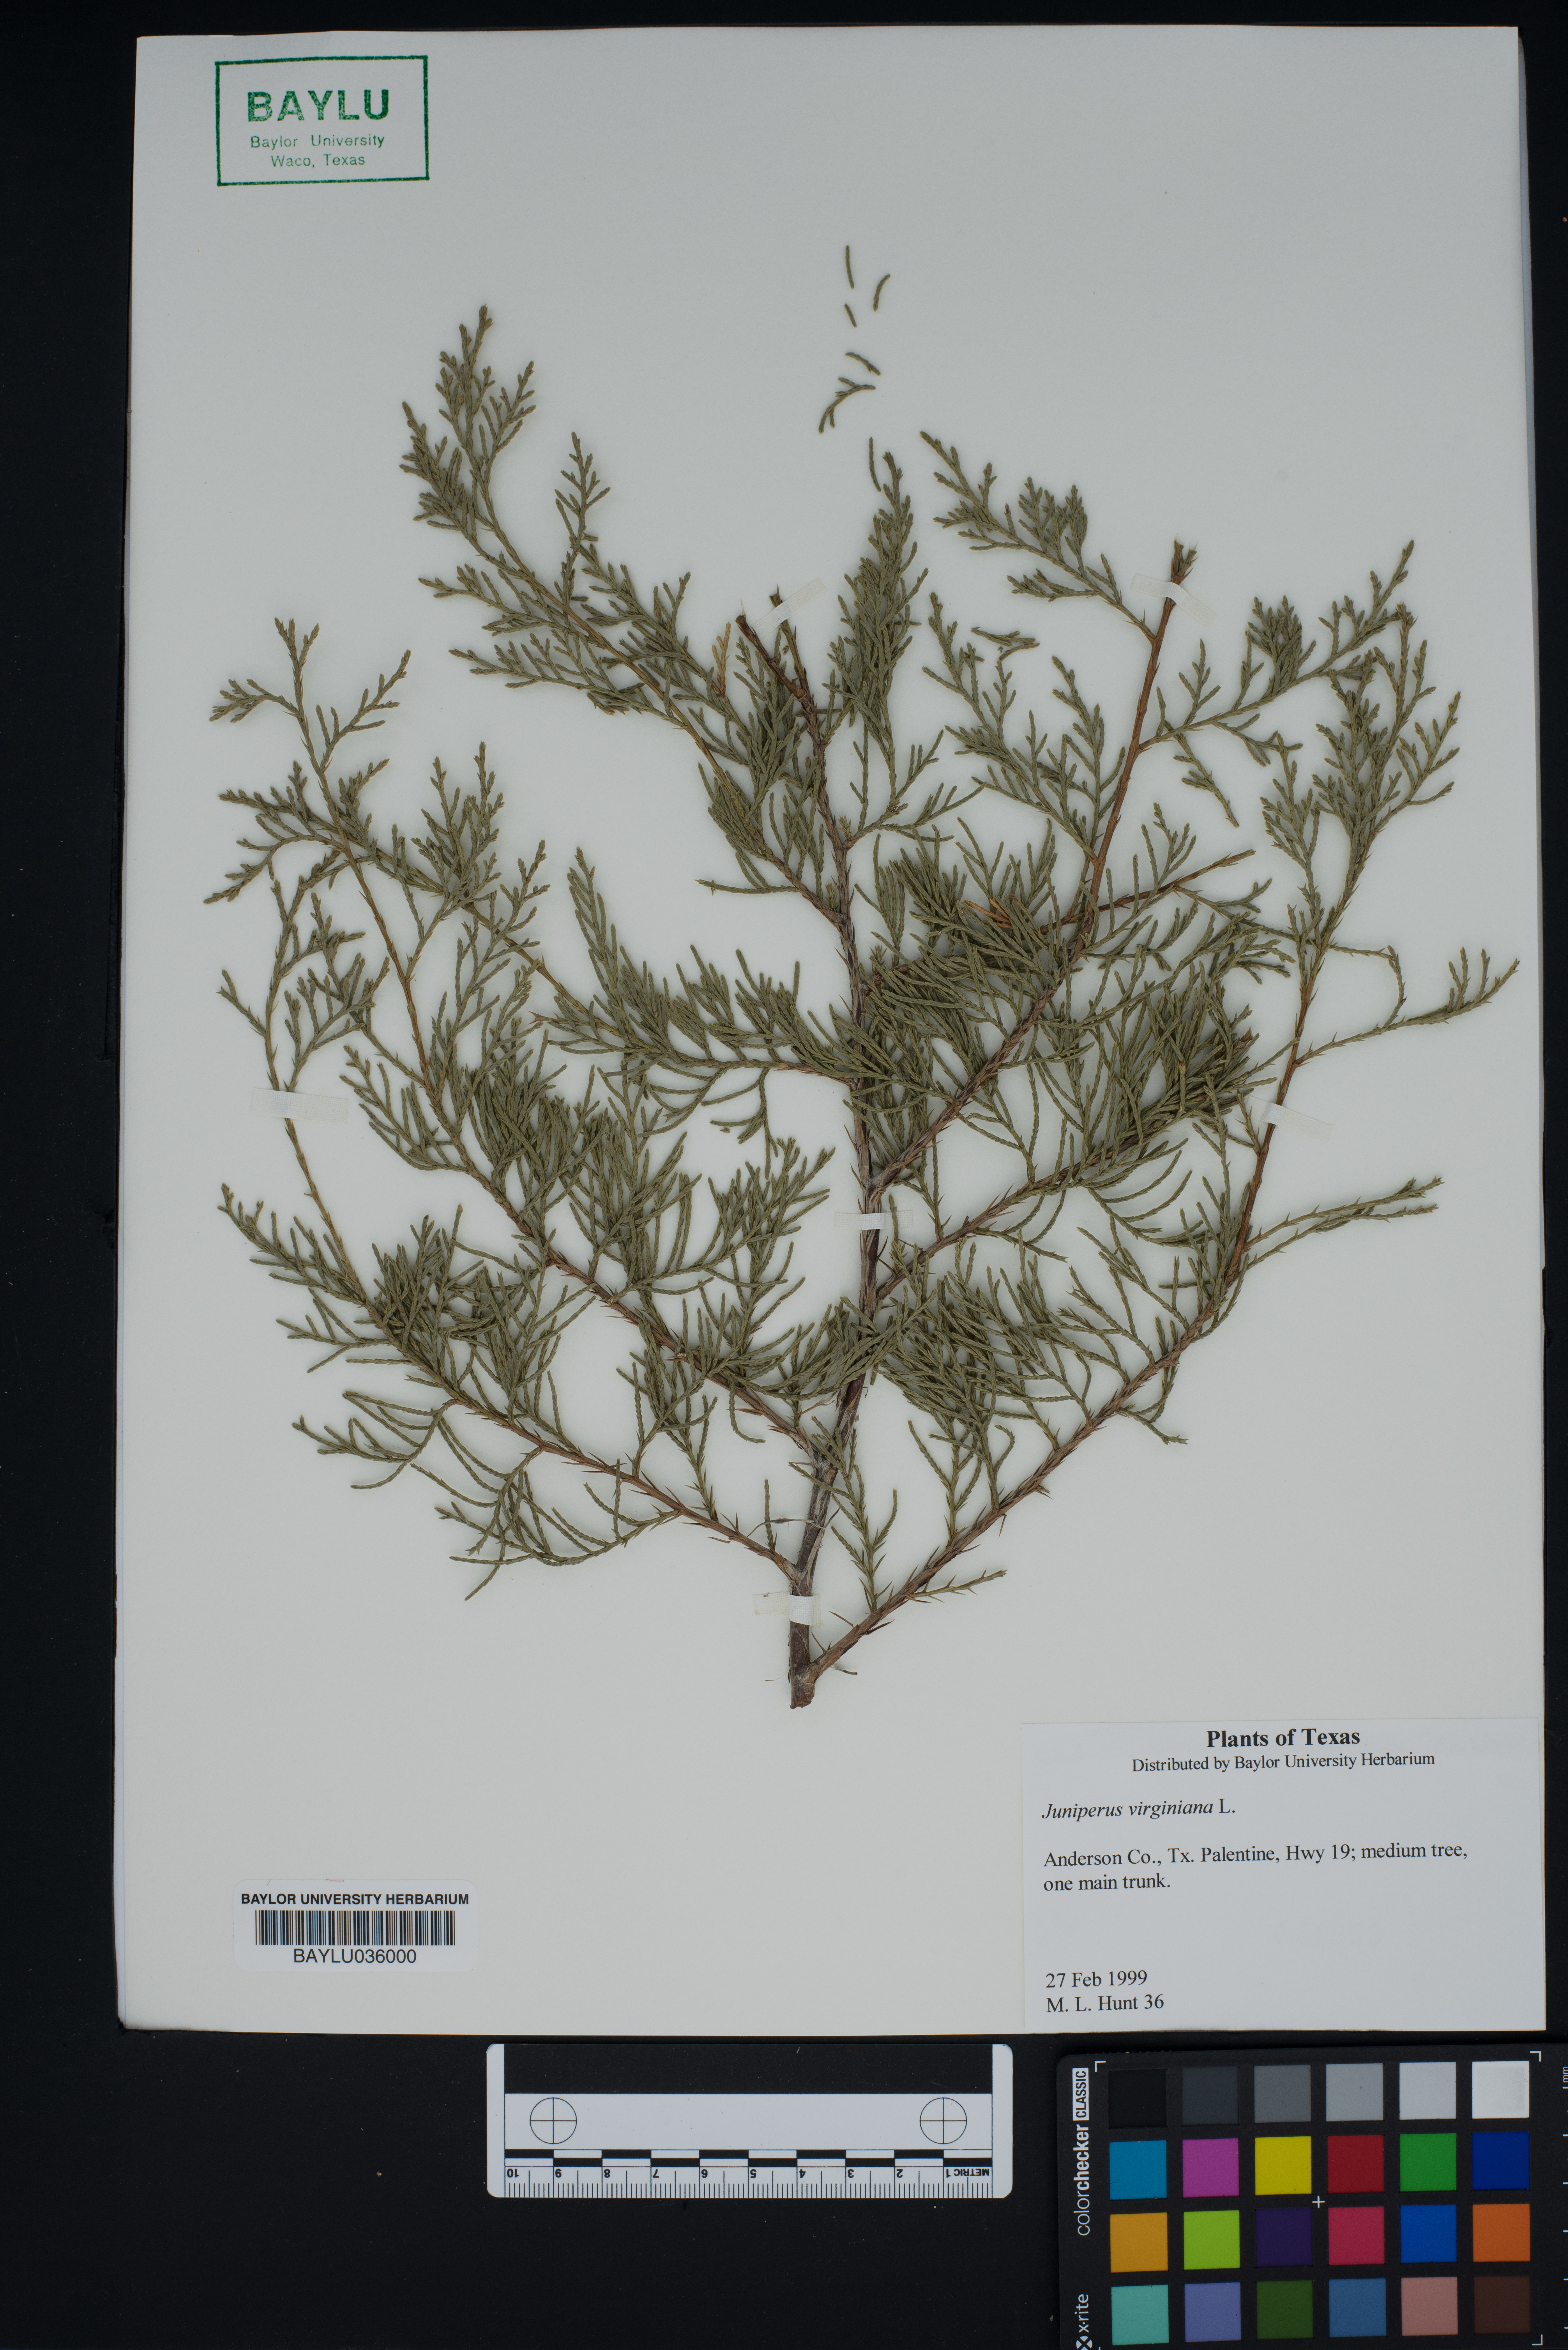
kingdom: Plantae
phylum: Tracheophyta
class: Pinopsida
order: Pinales
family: Cupressaceae
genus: Juniperus
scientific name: Juniperus virginiana
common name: Red juniper
